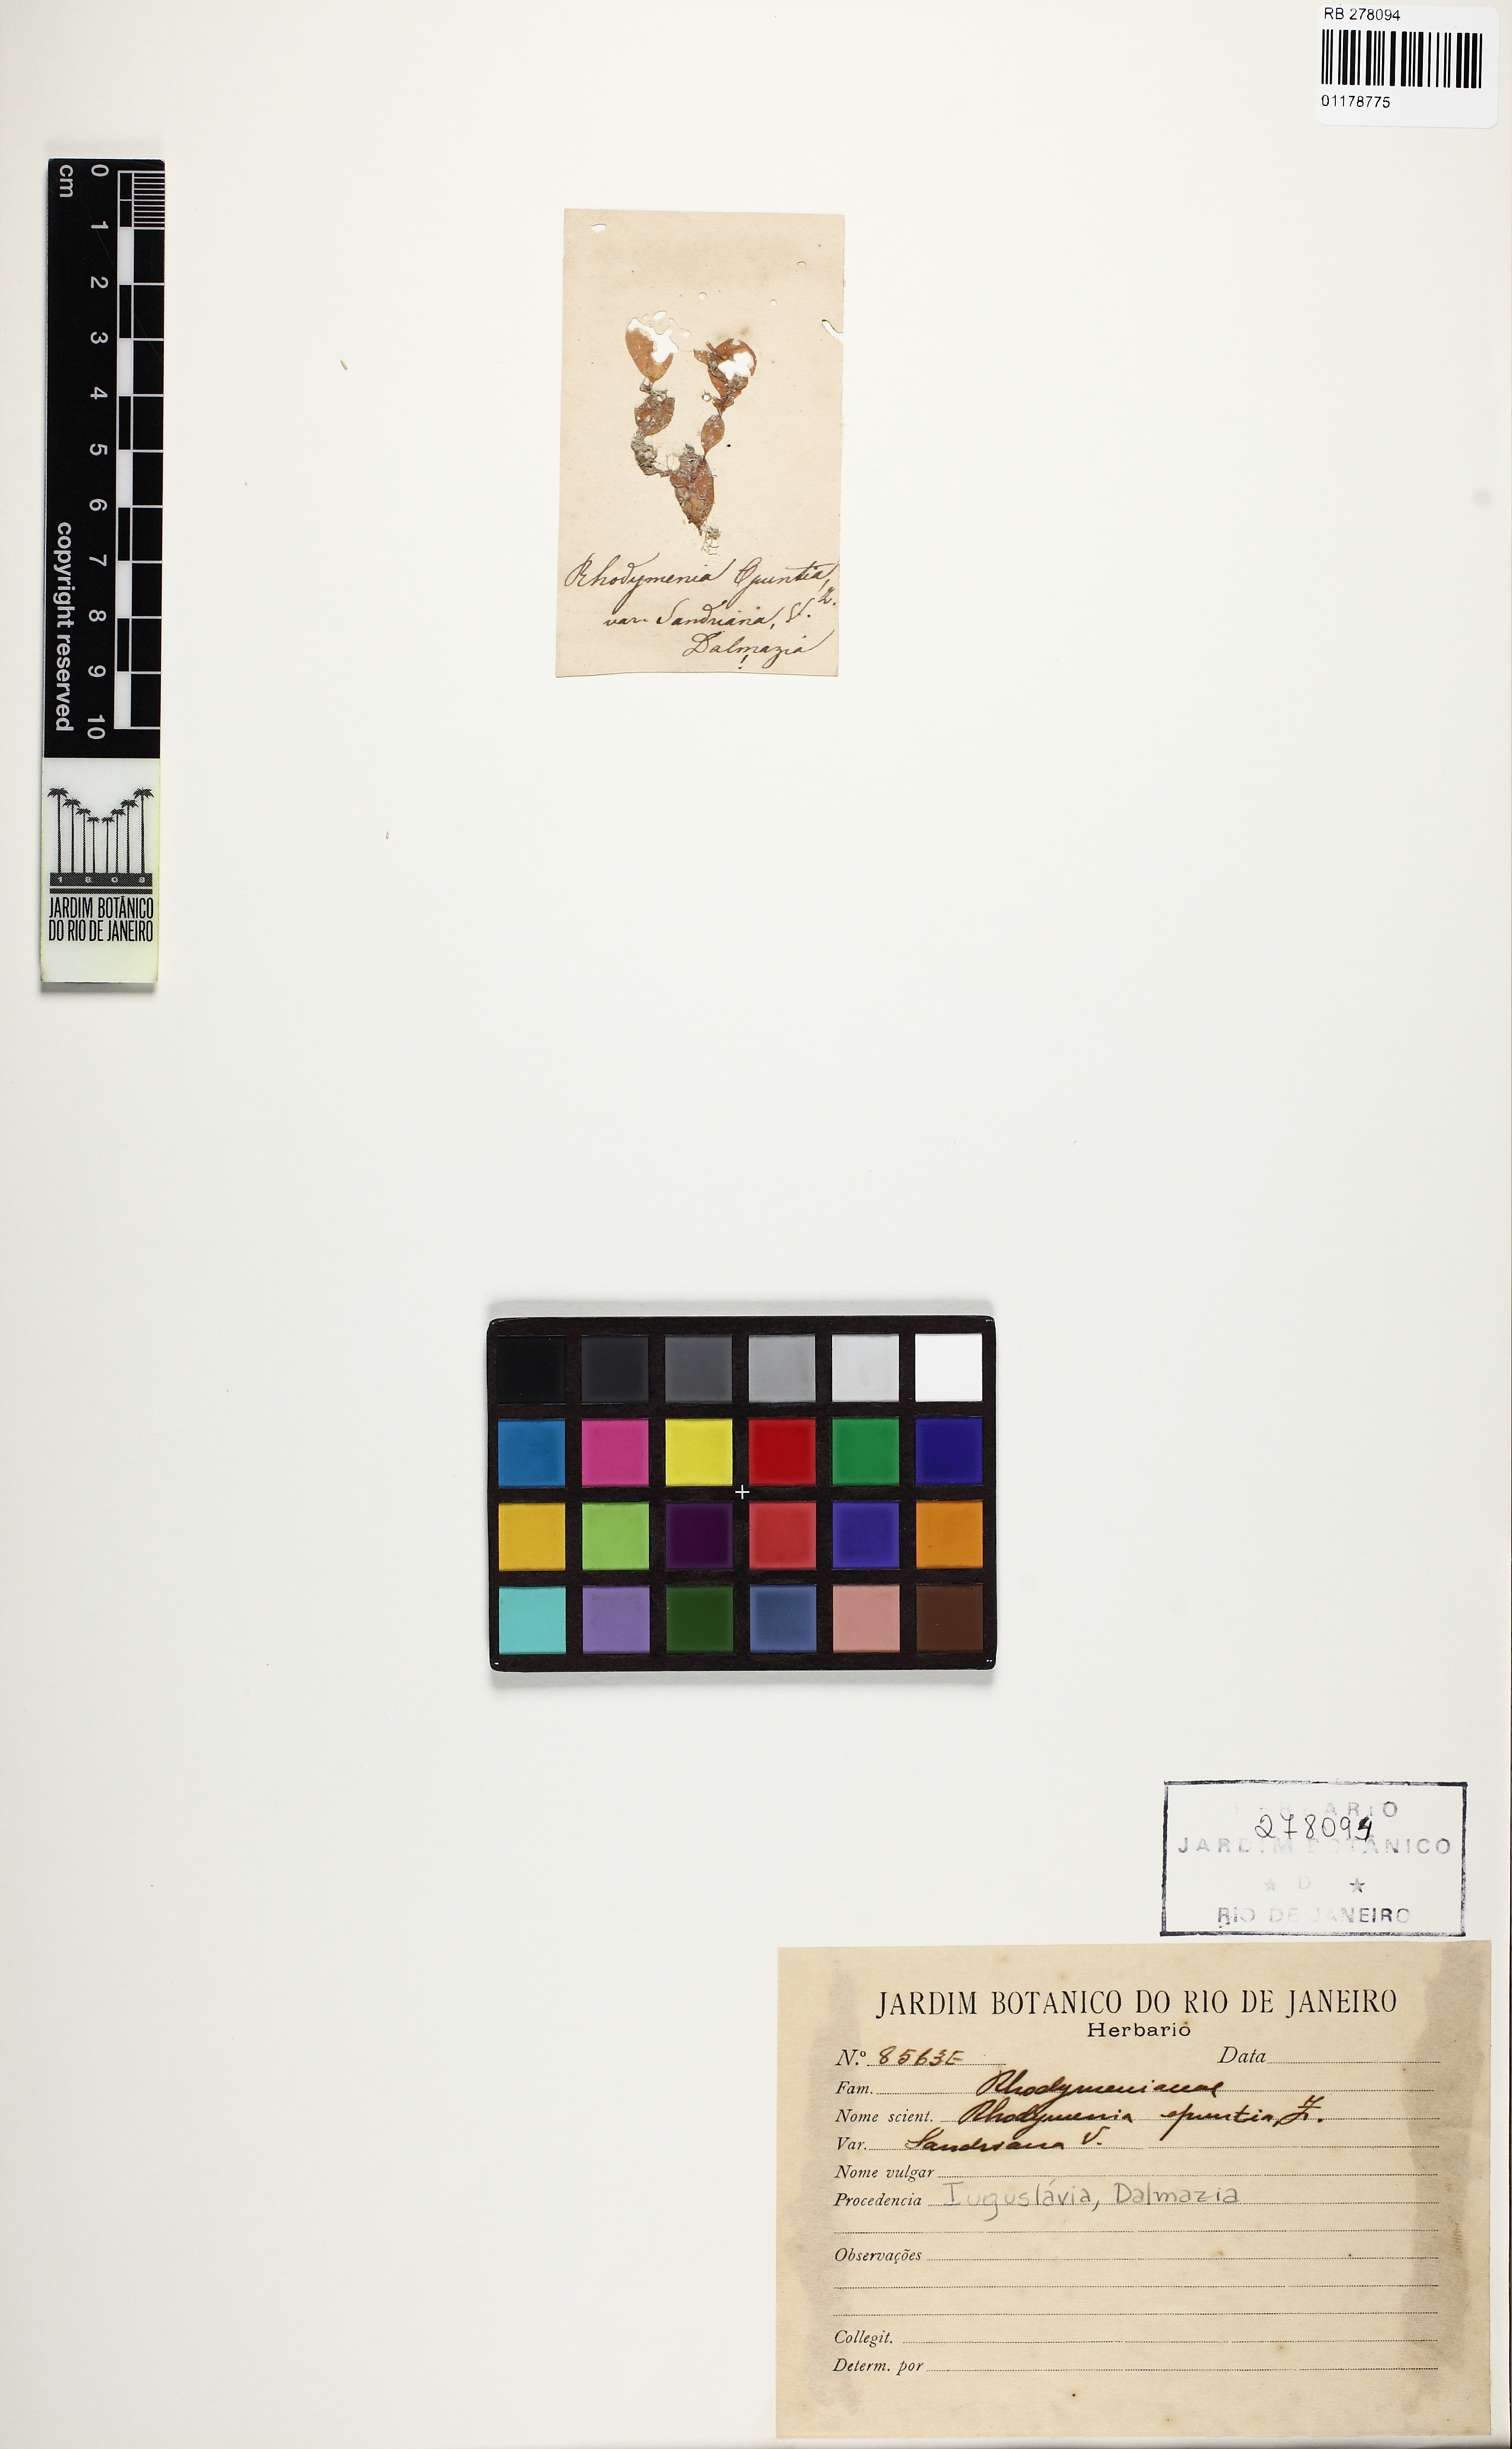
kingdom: Plantae
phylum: Rhodophyta
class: Florideophyceae
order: Rhodymeniales
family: Rhodymeniaceae
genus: Rhodymenia
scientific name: Rhodymenia
